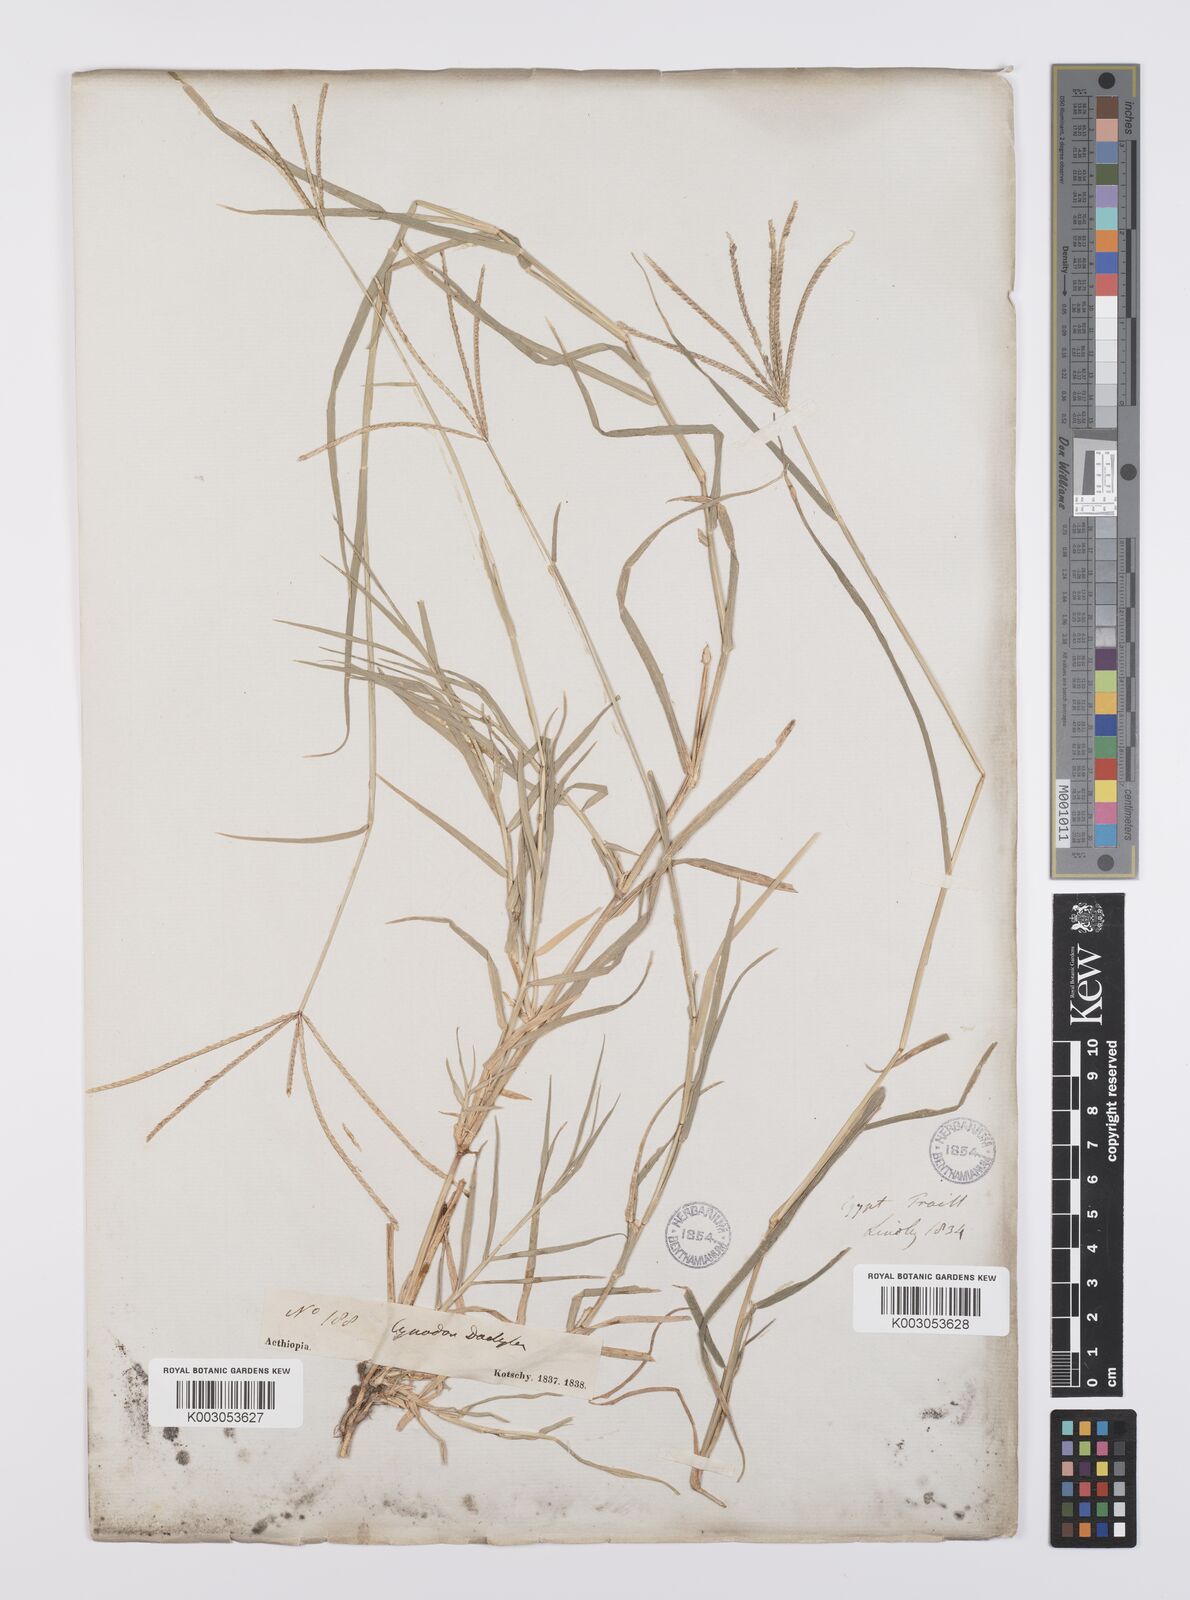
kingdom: Plantae
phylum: Tracheophyta
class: Liliopsida
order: Poales
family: Poaceae
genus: Cynodon
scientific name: Cynodon nlemfuensis
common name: African bermudagrass
